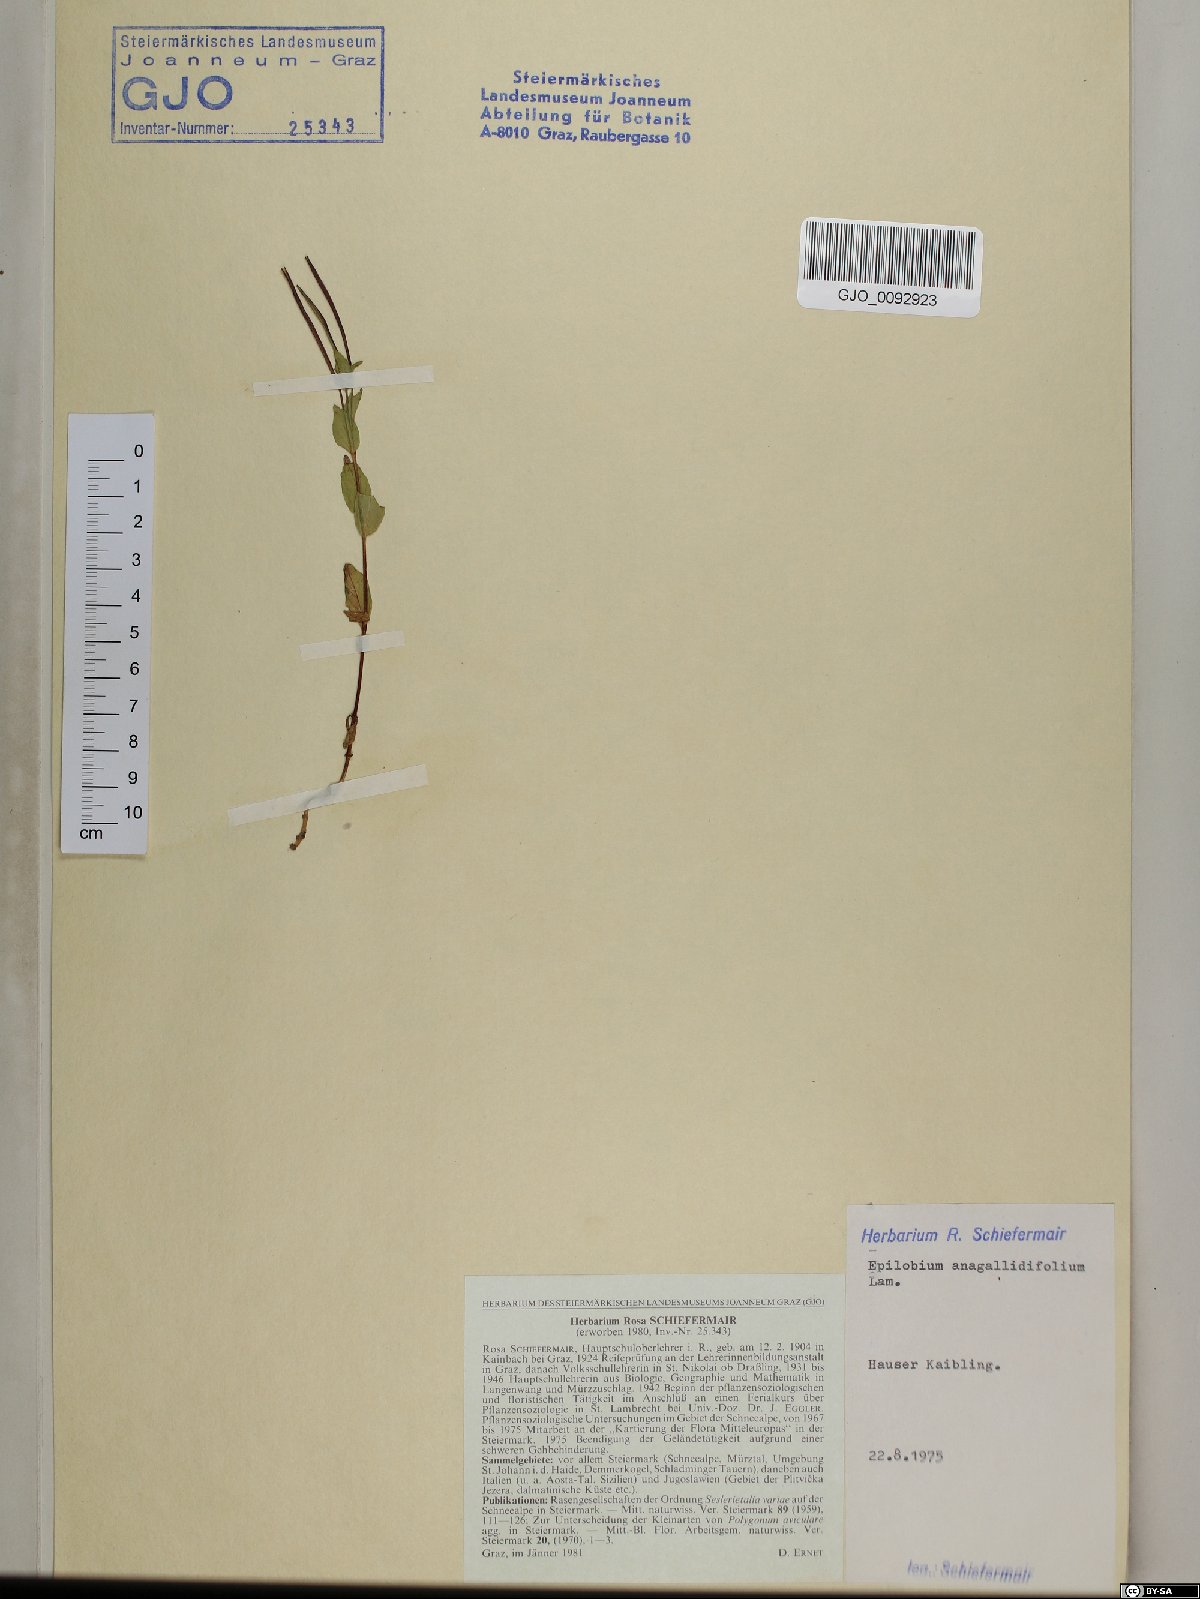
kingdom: Plantae
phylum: Tracheophyta
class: Magnoliopsida
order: Myrtales
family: Onagraceae
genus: Epilobium
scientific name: Epilobium anagallidifolium
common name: Alpine willowherb
